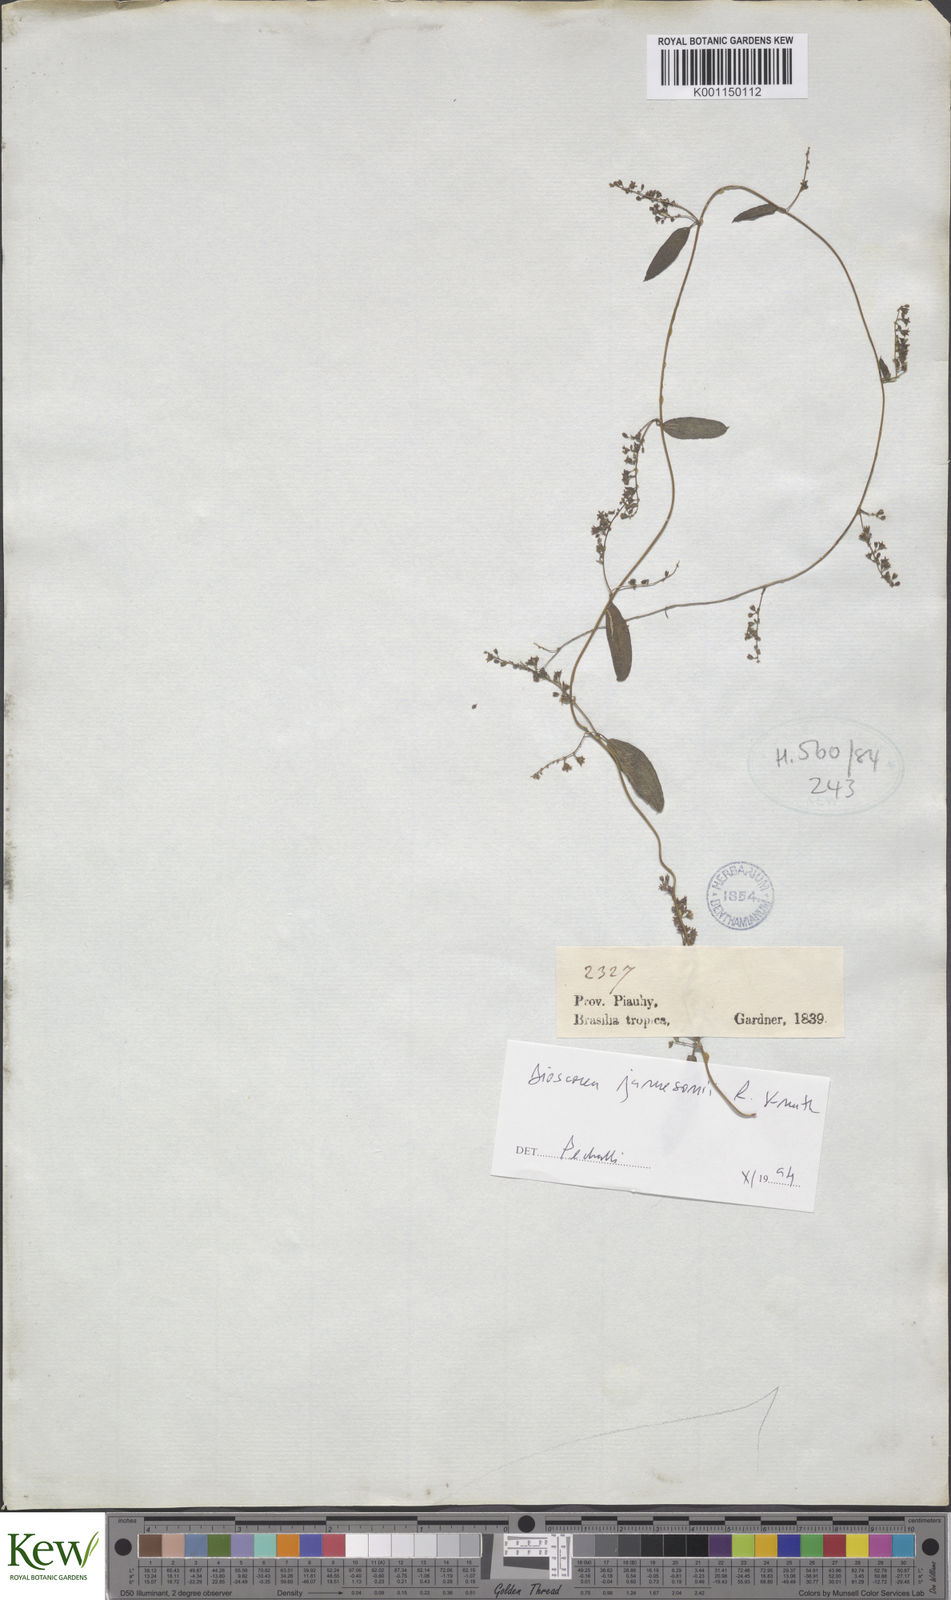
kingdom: Plantae
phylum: Tracheophyta
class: Liliopsida
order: Dioscoreales
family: Dioscoreaceae
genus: Dioscorea
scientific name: Dioscorea jamesonii
